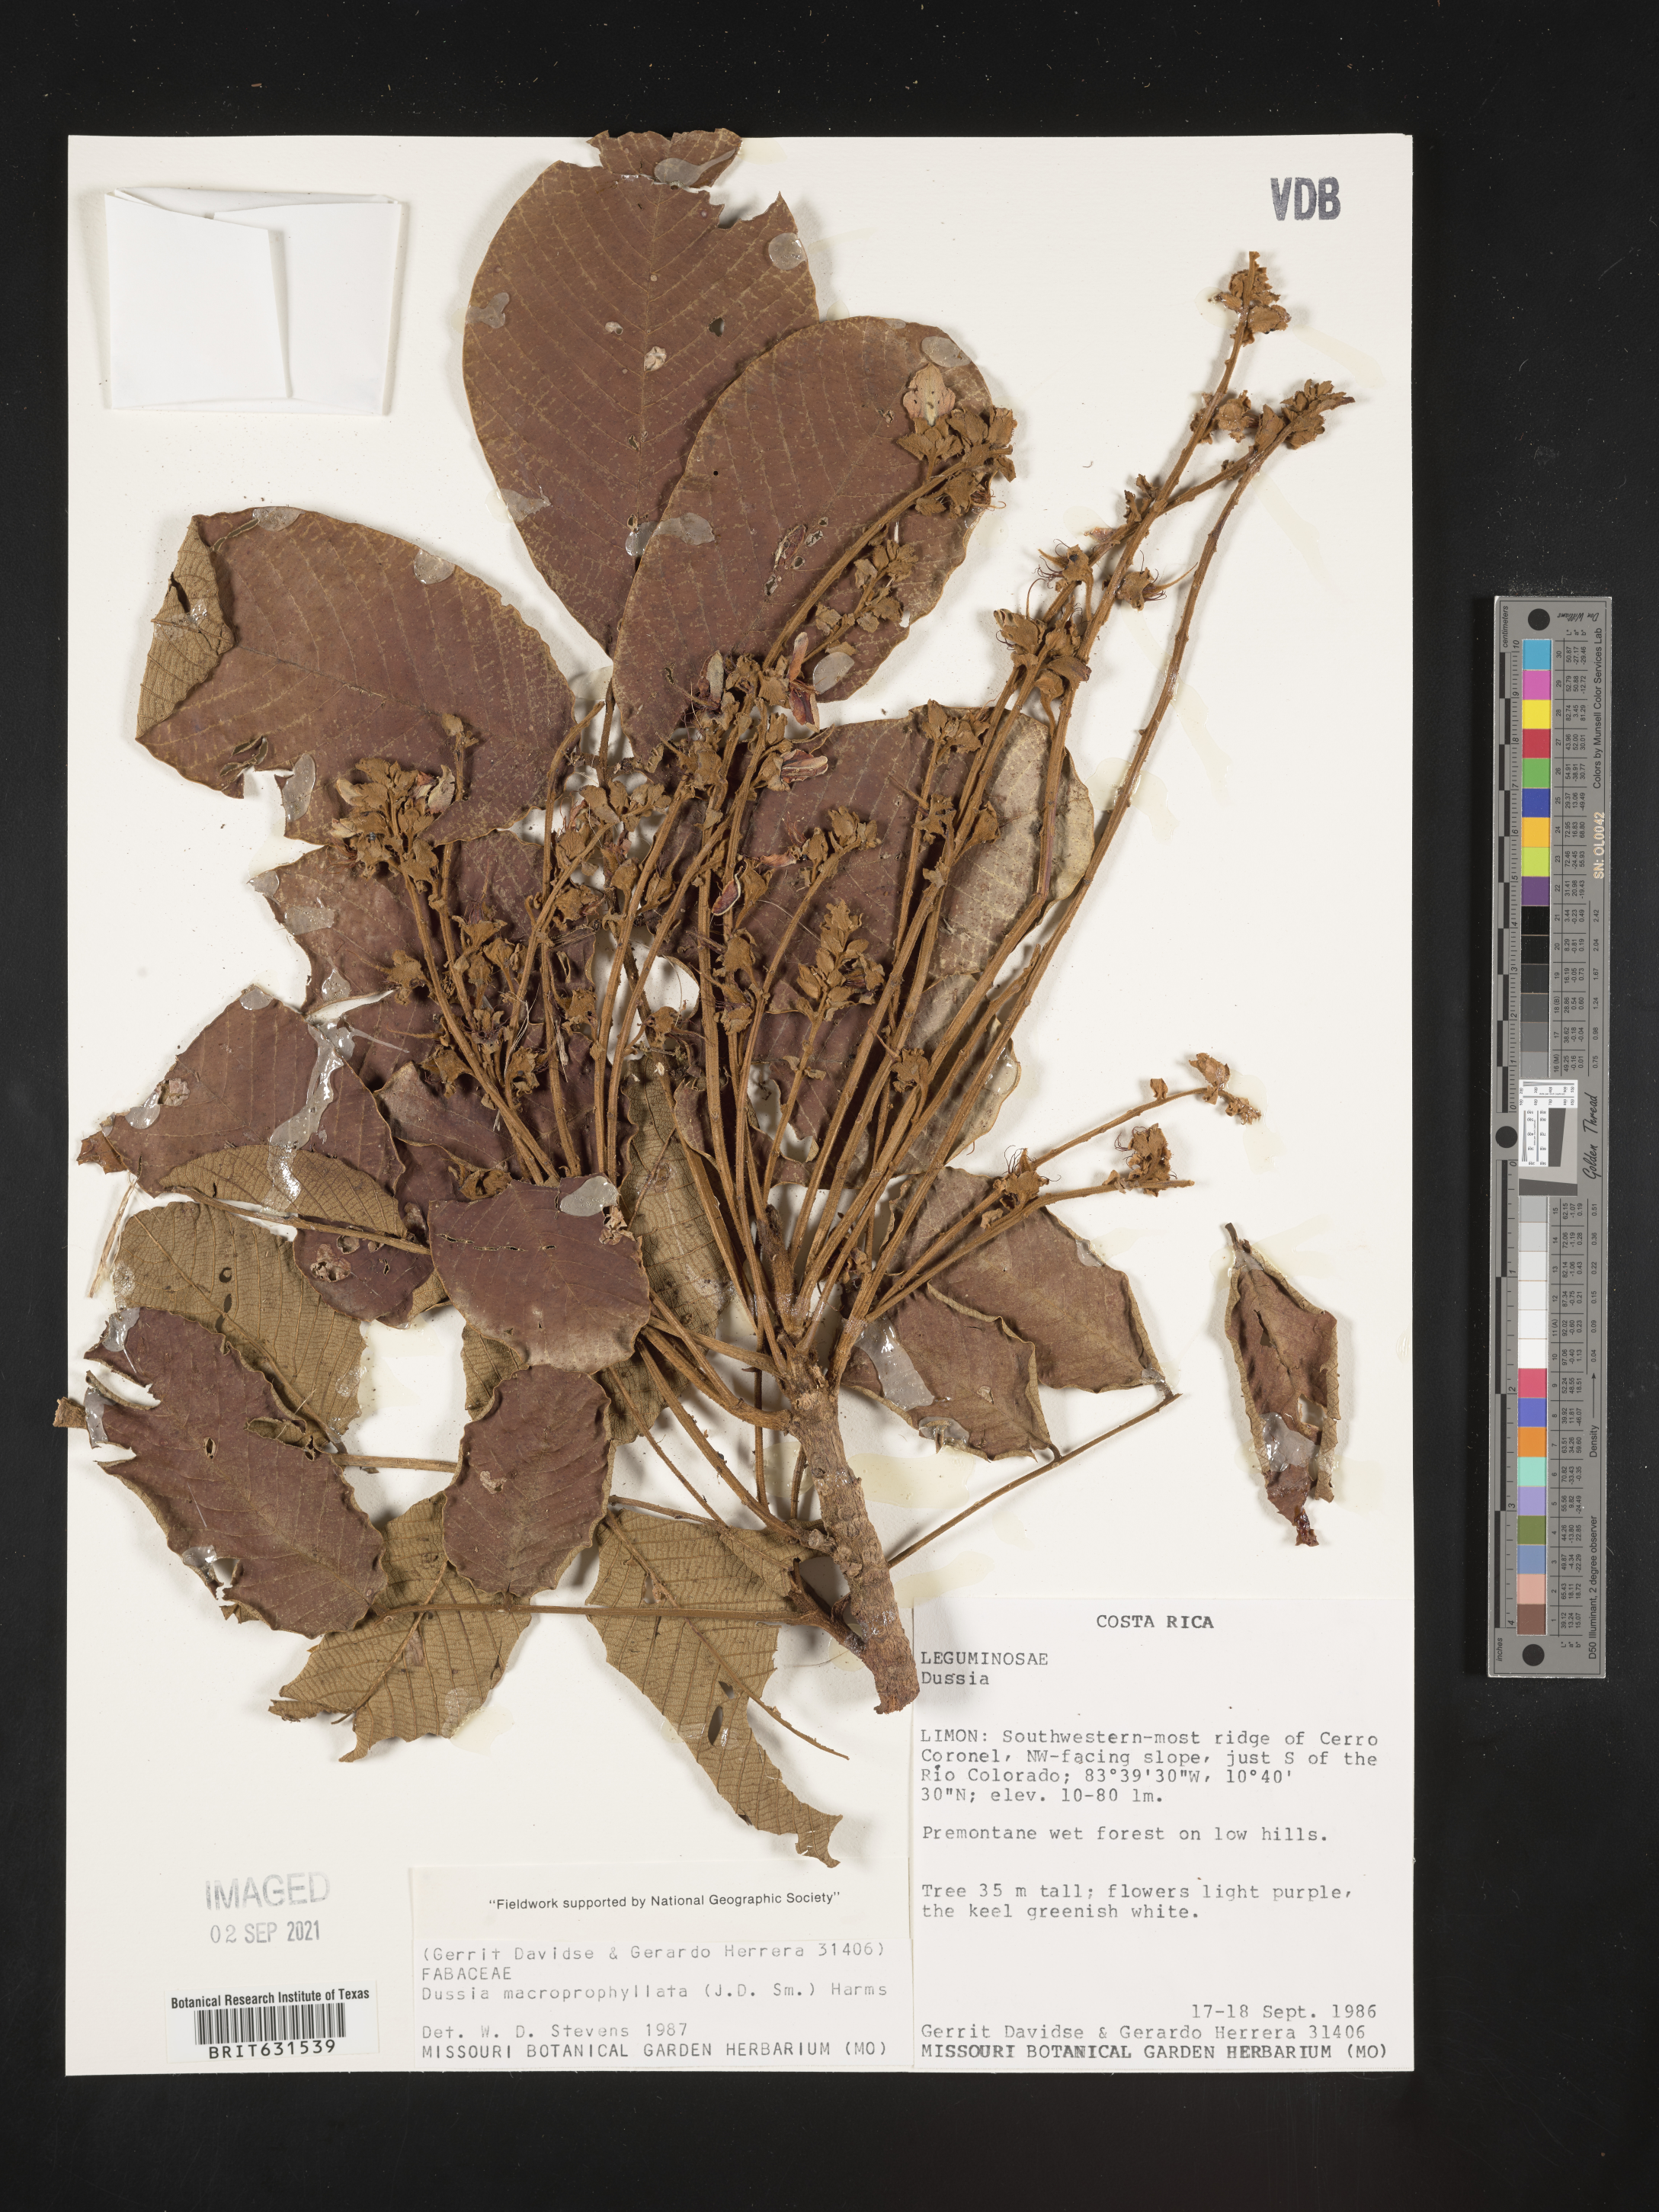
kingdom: Plantae
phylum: Tracheophyta
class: Magnoliopsida
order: Fabales
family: Fabaceae
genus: Dussia
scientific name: Dussia macroprophyllata
